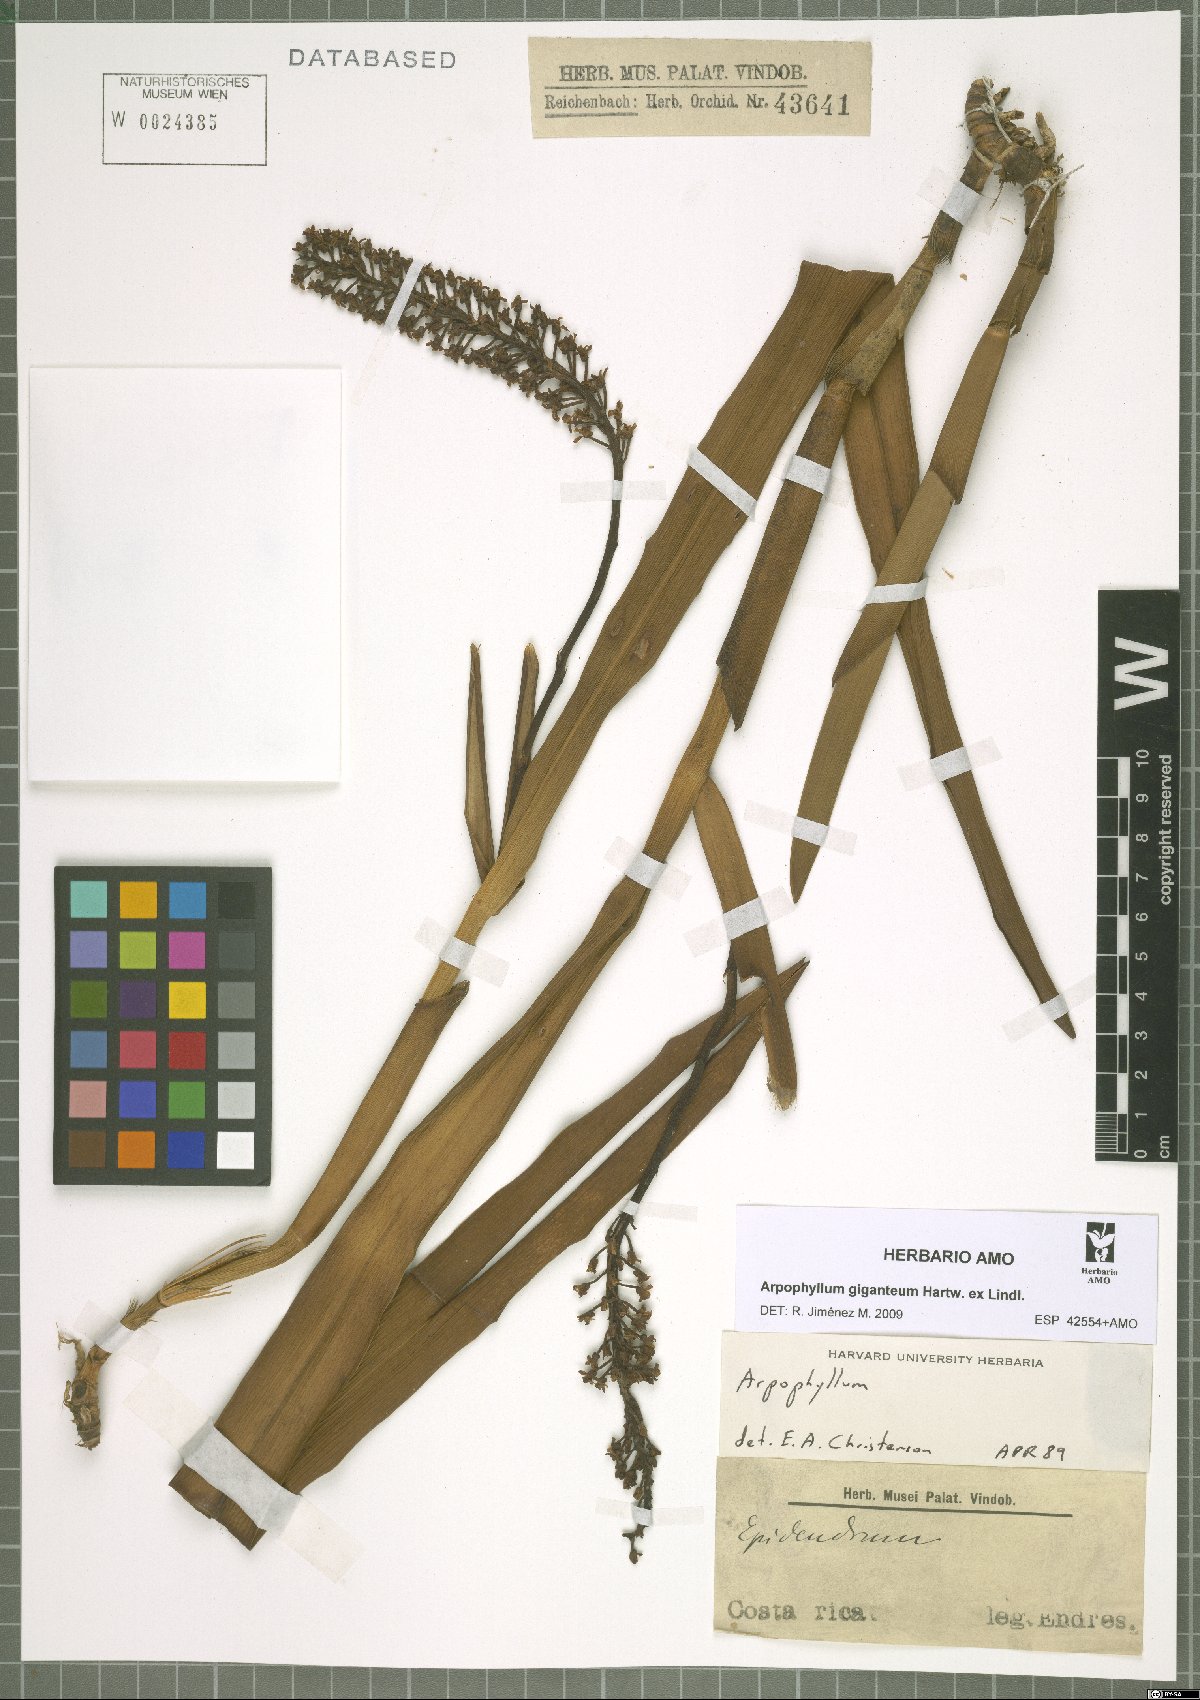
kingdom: Plantae
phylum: Tracheophyta
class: Liliopsida
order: Asparagales
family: Orchidaceae
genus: Arpophyllum
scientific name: Arpophyllum giganteum
